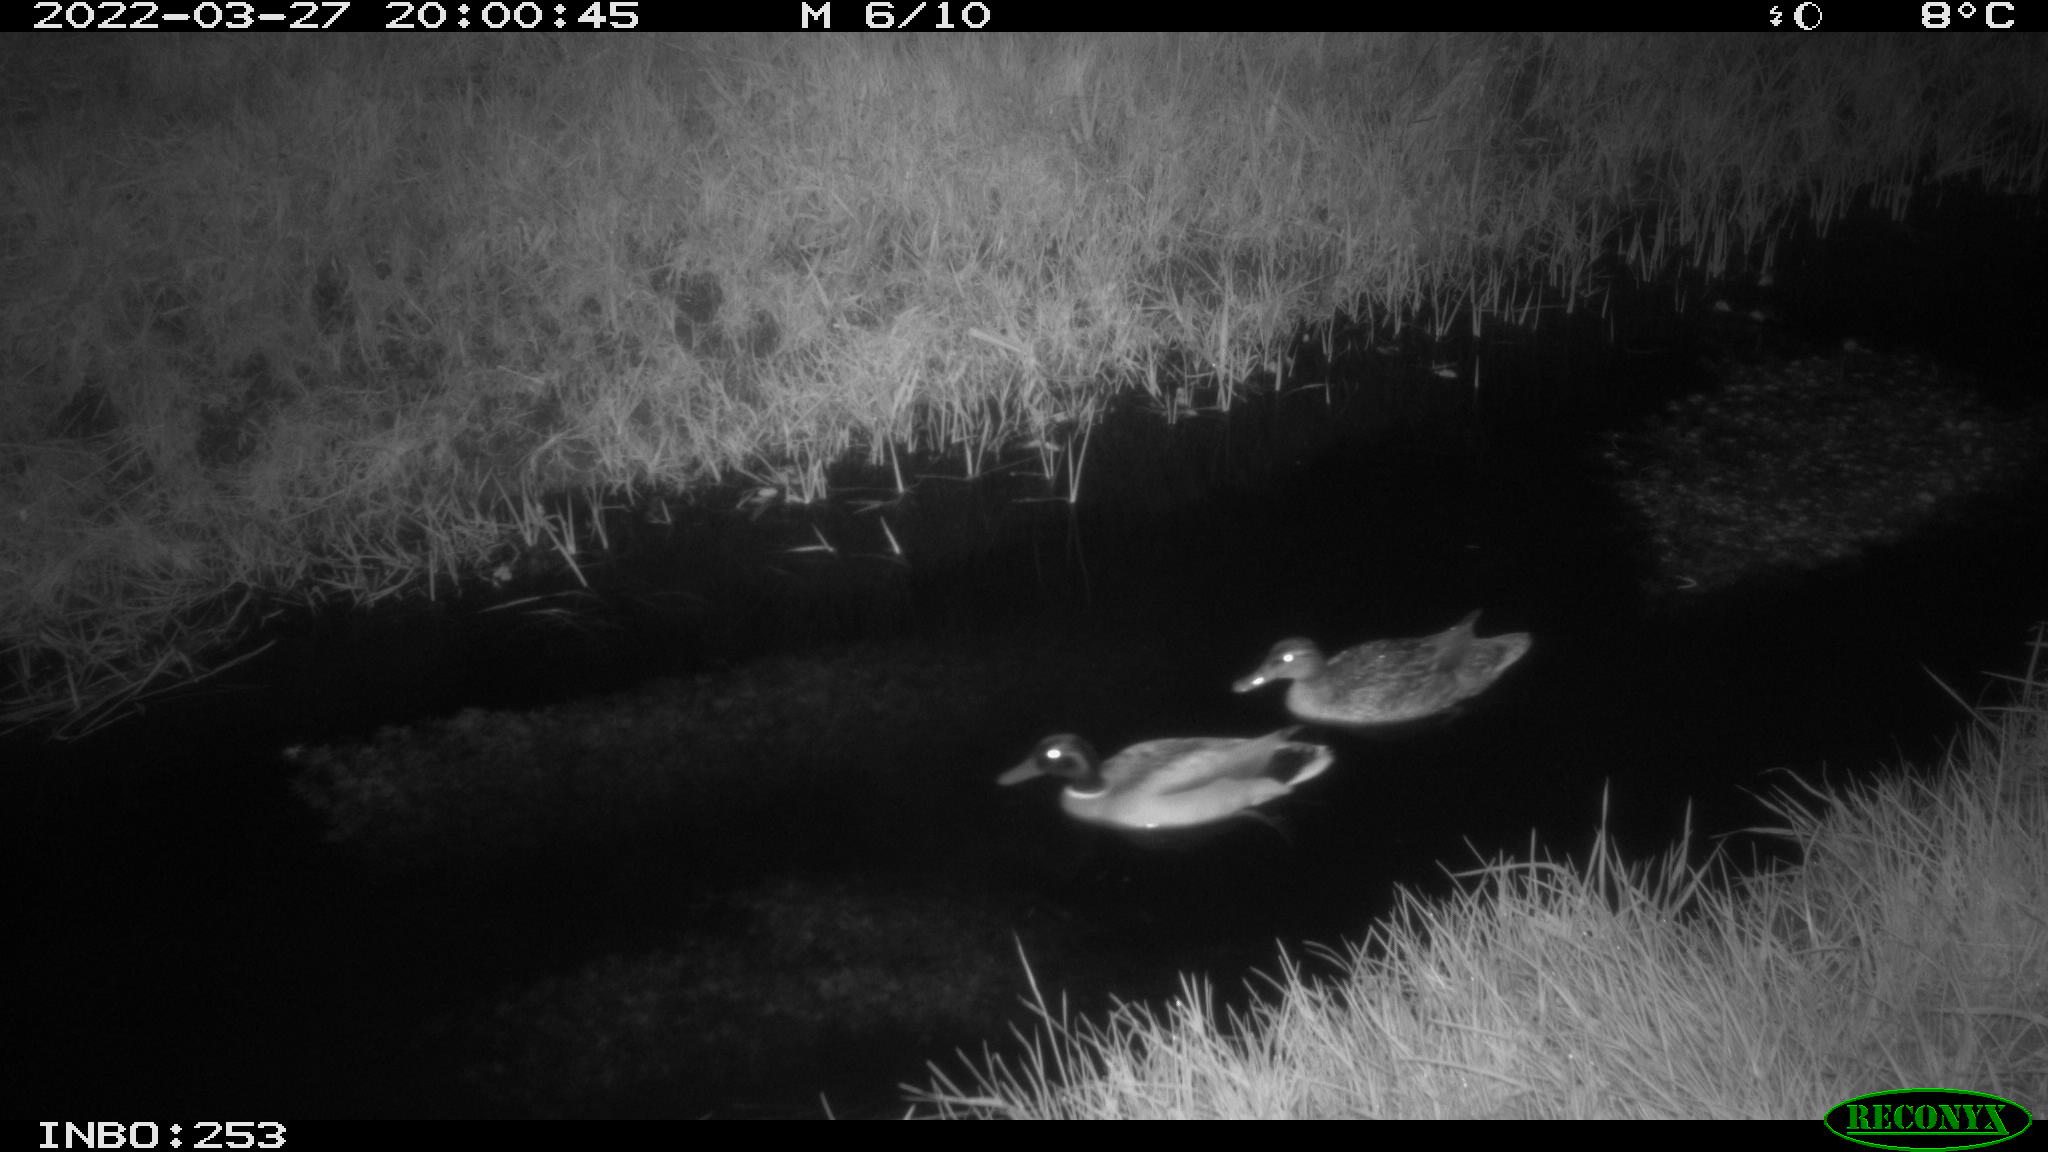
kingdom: Animalia
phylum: Chordata
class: Aves
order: Anseriformes
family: Anatidae
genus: Anas
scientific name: Anas platyrhynchos
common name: Mallard
